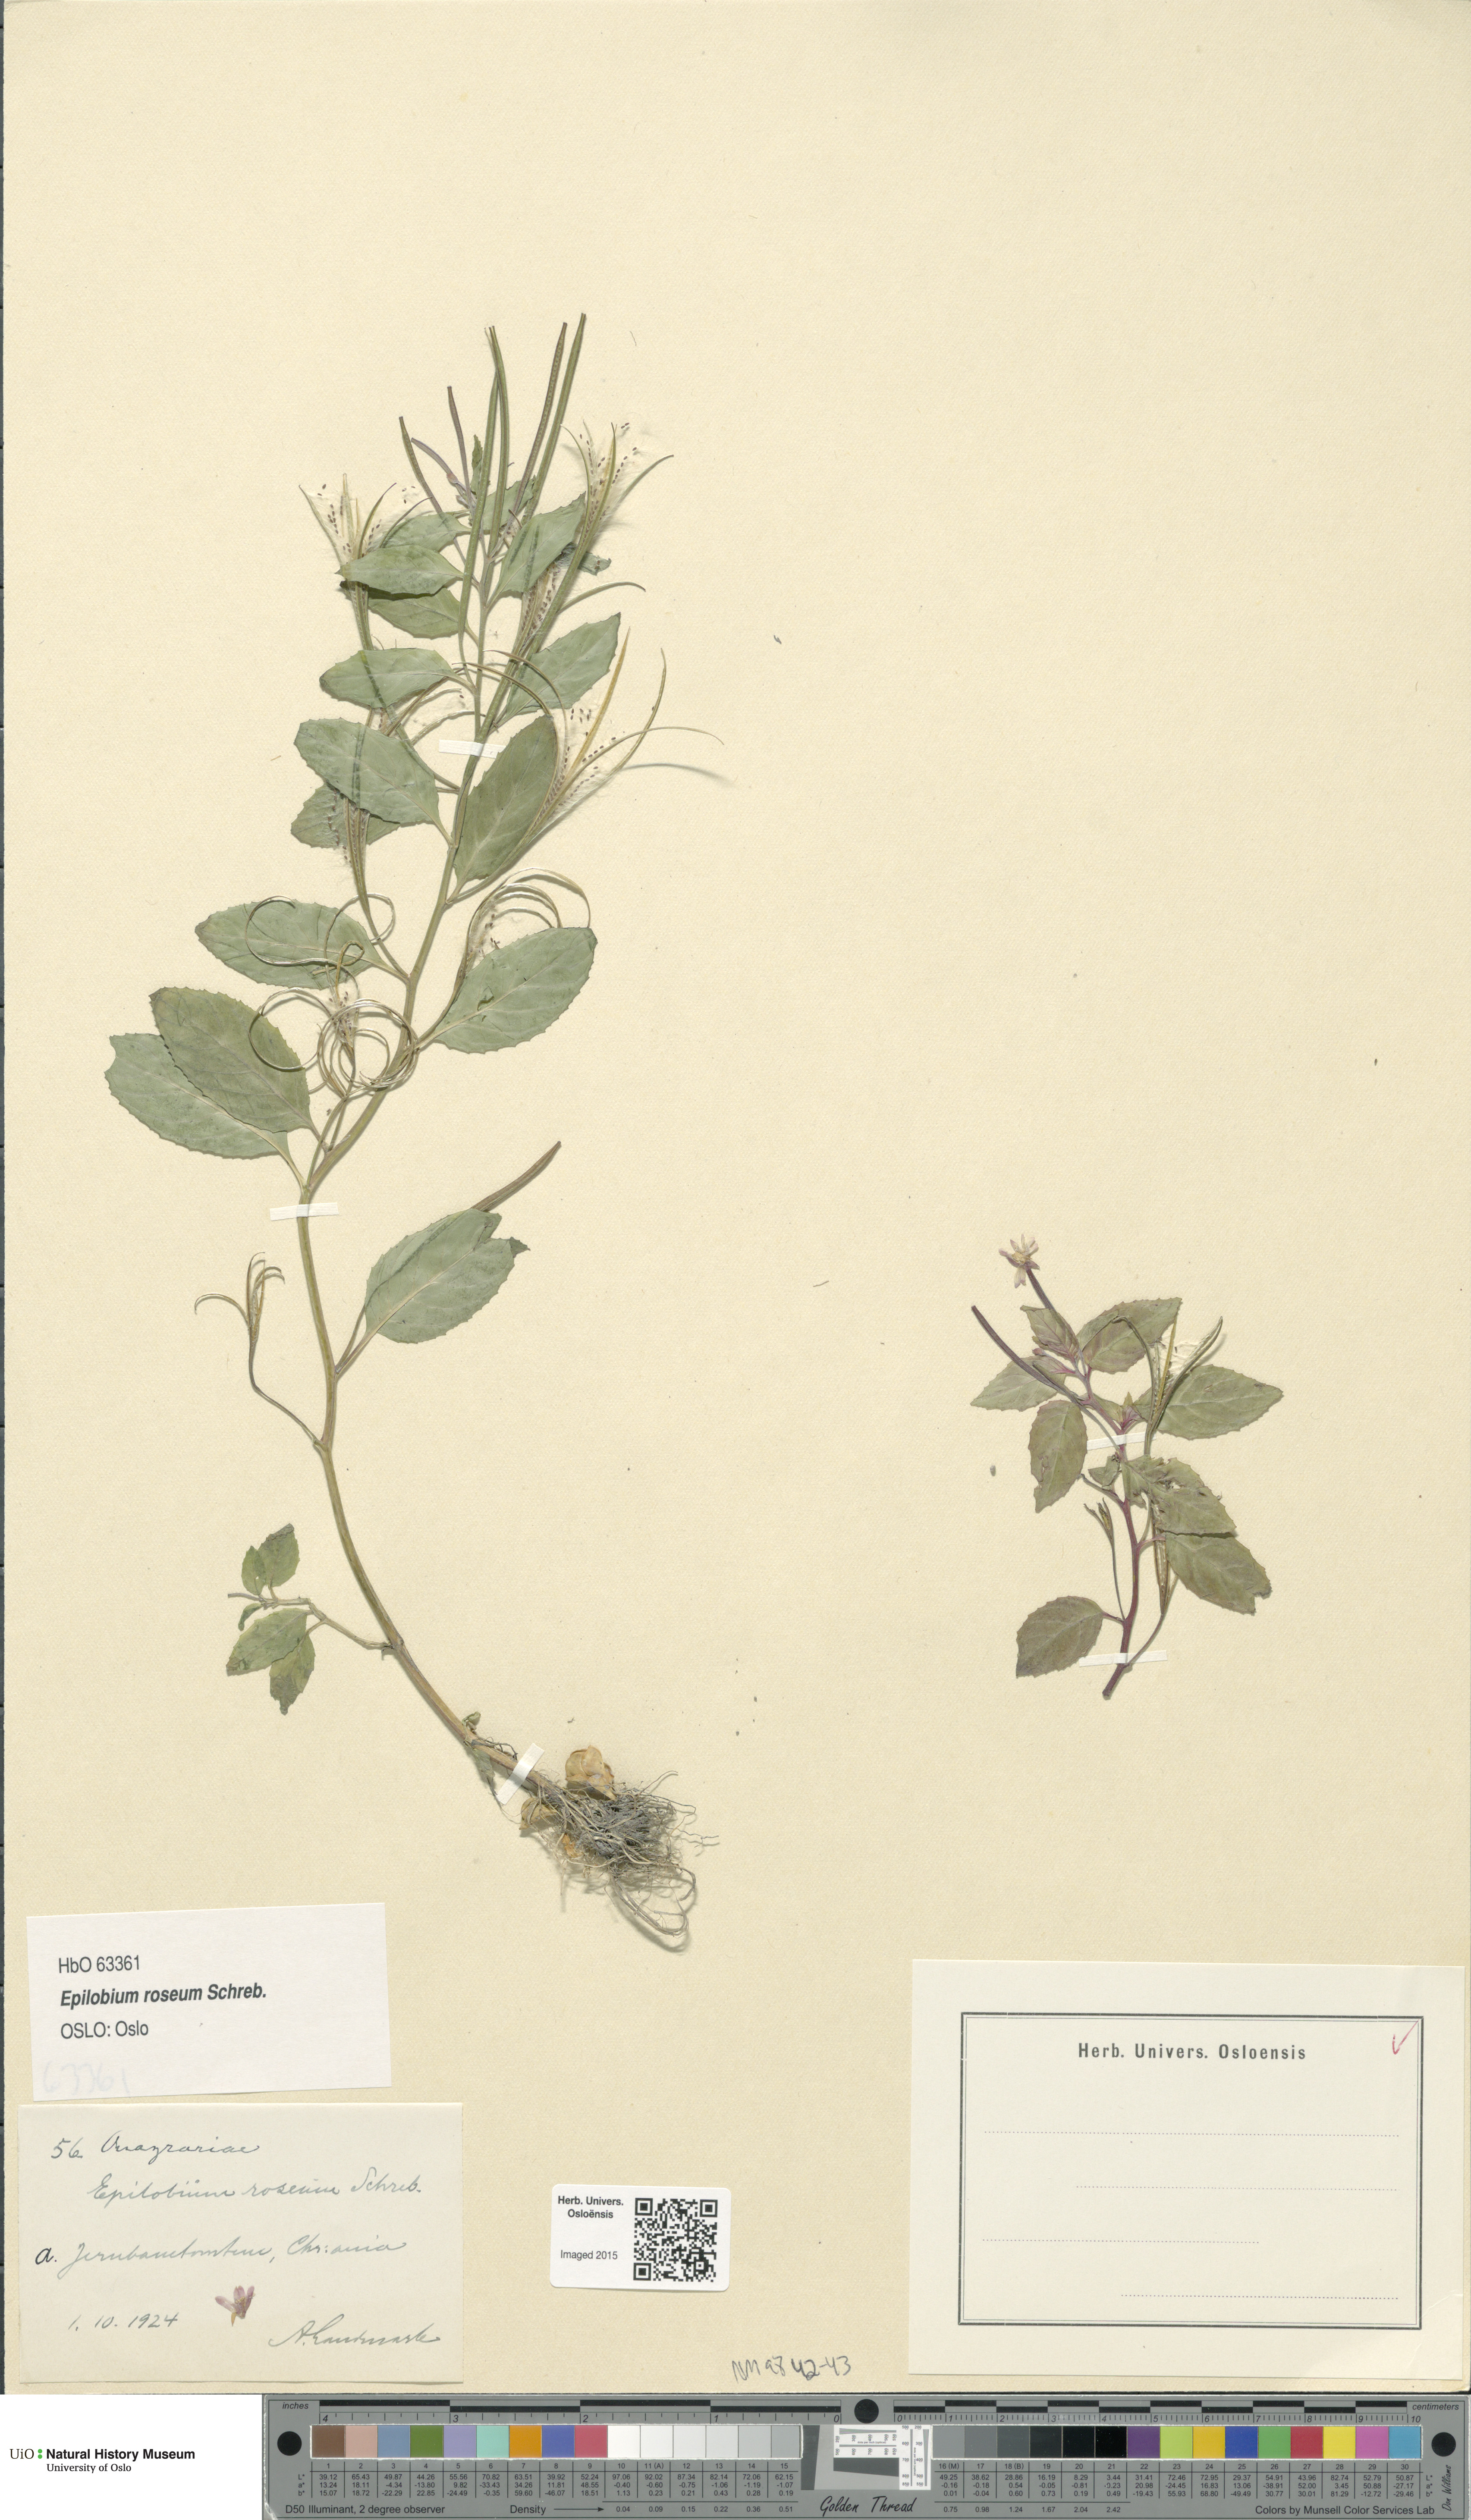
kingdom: Plantae
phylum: Tracheophyta
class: Magnoliopsida
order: Myrtales
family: Onagraceae
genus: Epilobium
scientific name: Epilobium roseum
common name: Pale willowherb
